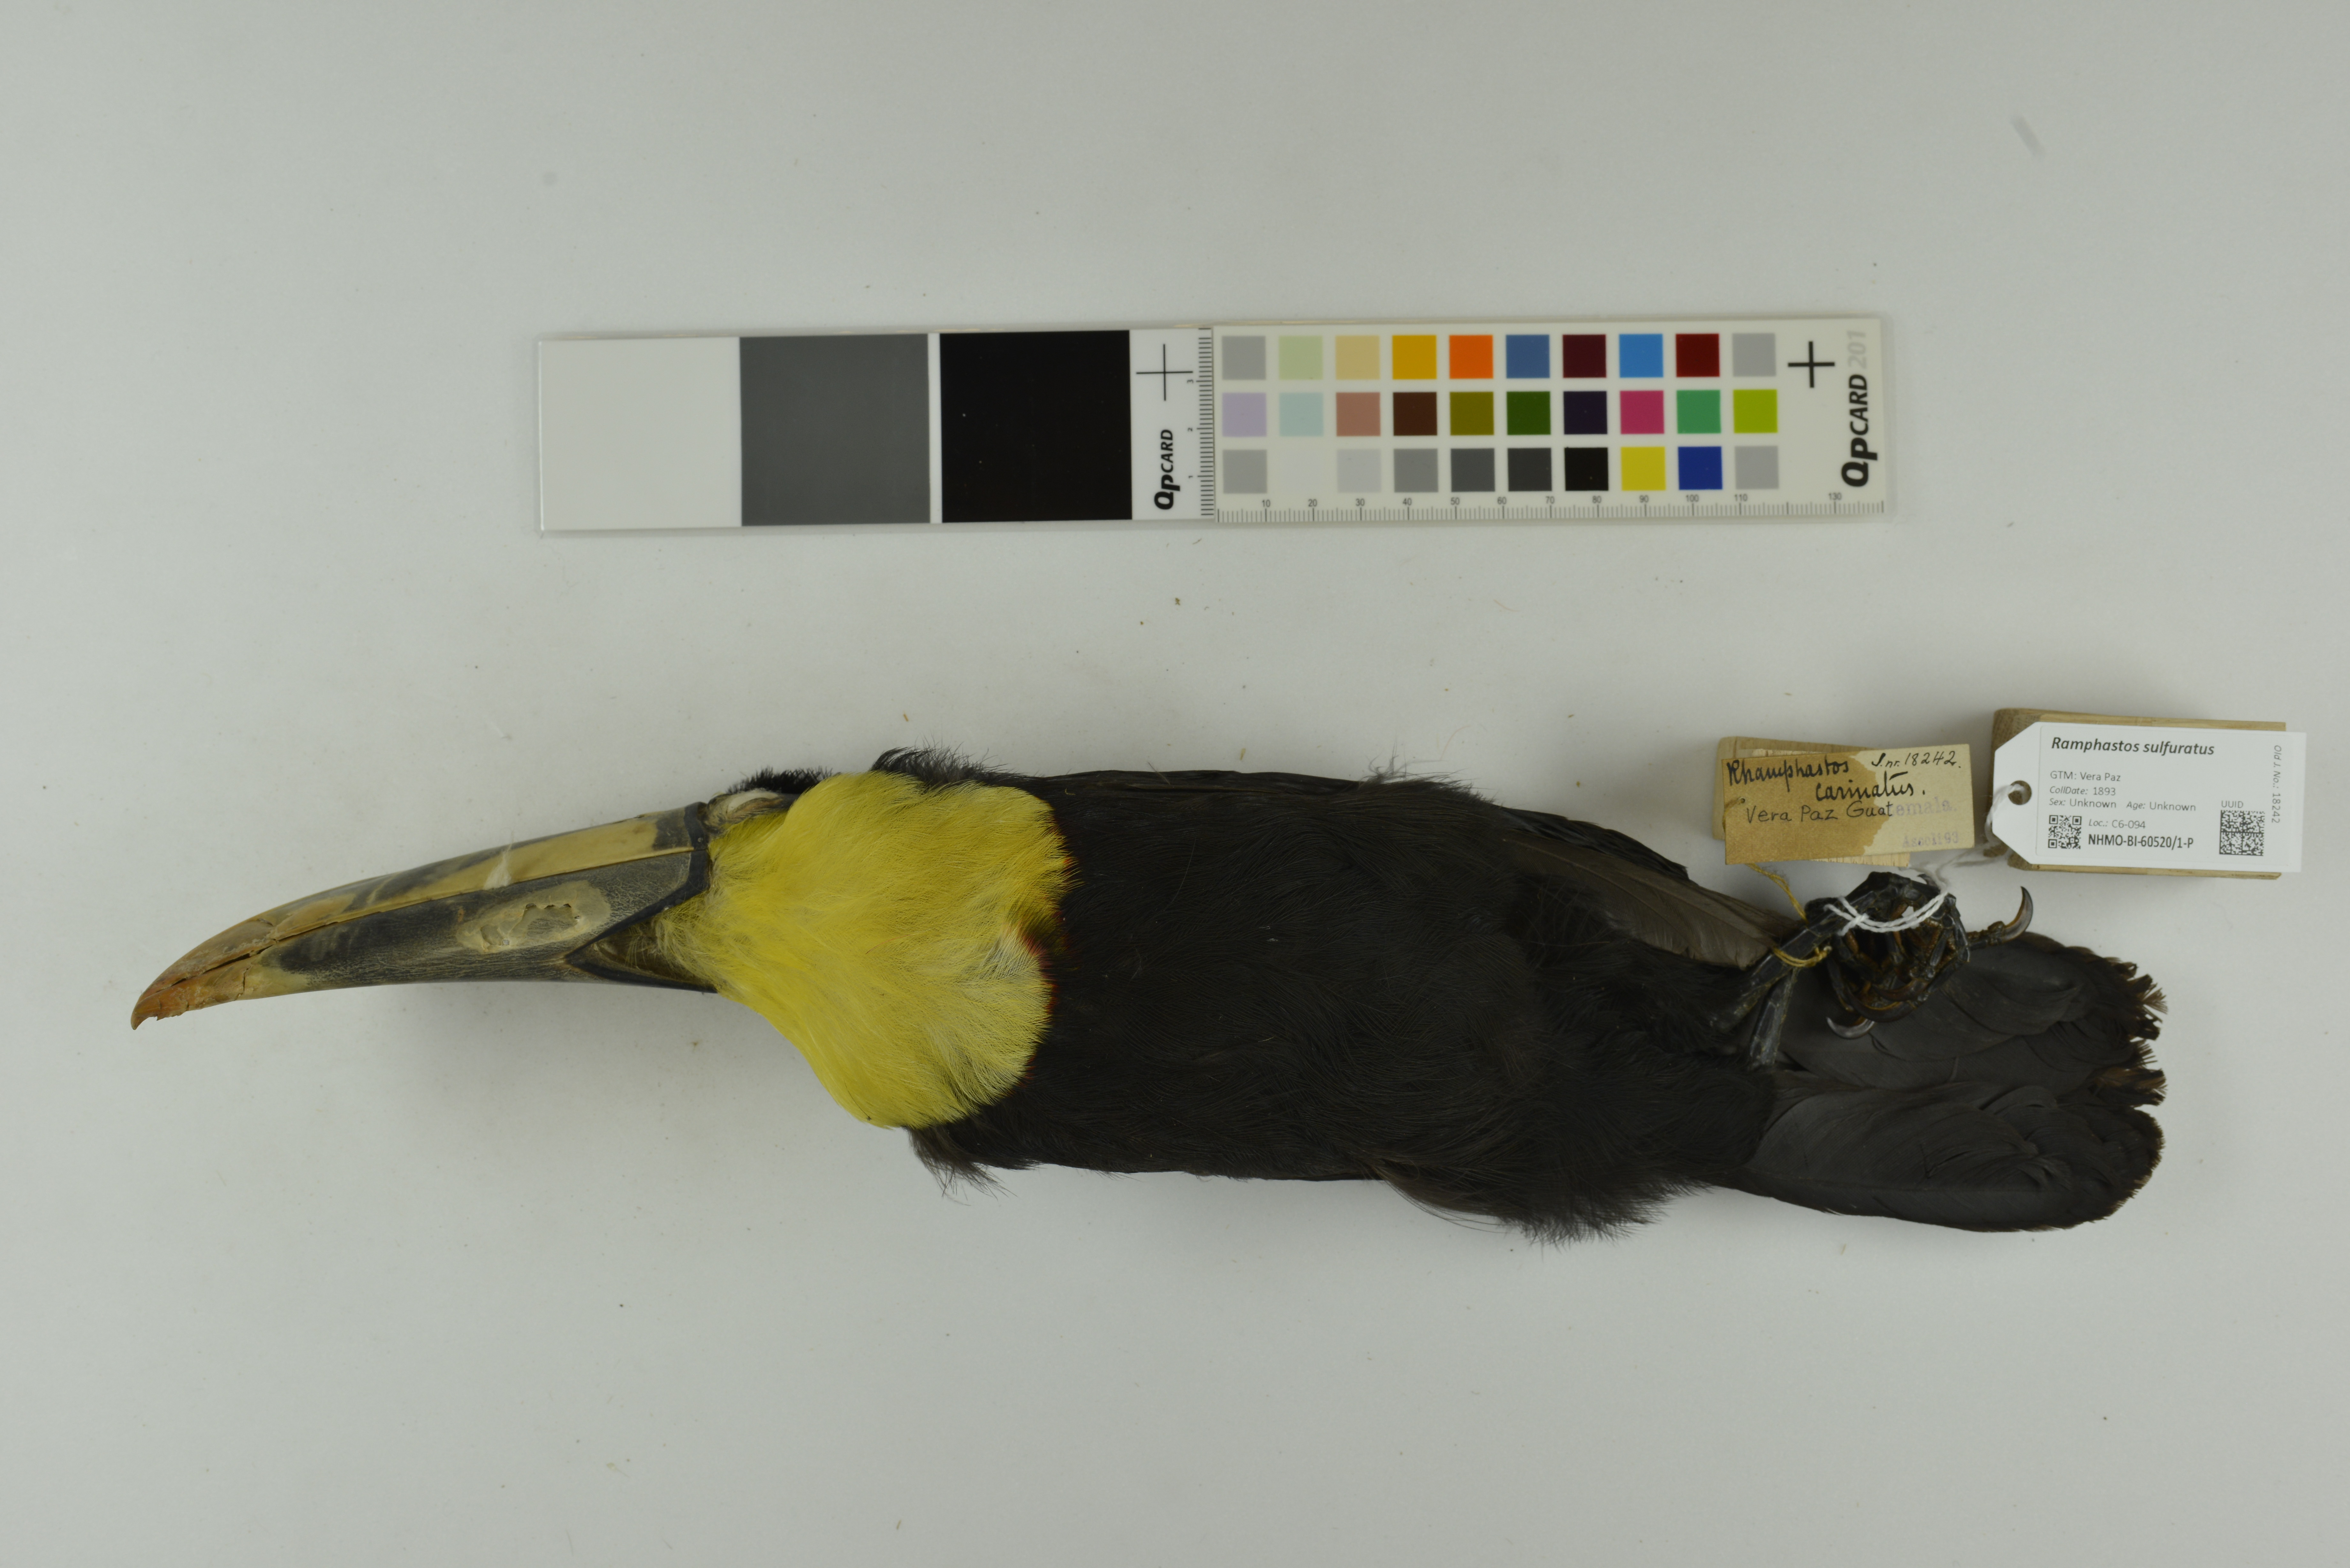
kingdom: Animalia
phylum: Chordata
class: Aves
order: Piciformes
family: Ramphastidae
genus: Ramphastos
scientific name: Ramphastos sulfuratus
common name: Keel-billed toucan
